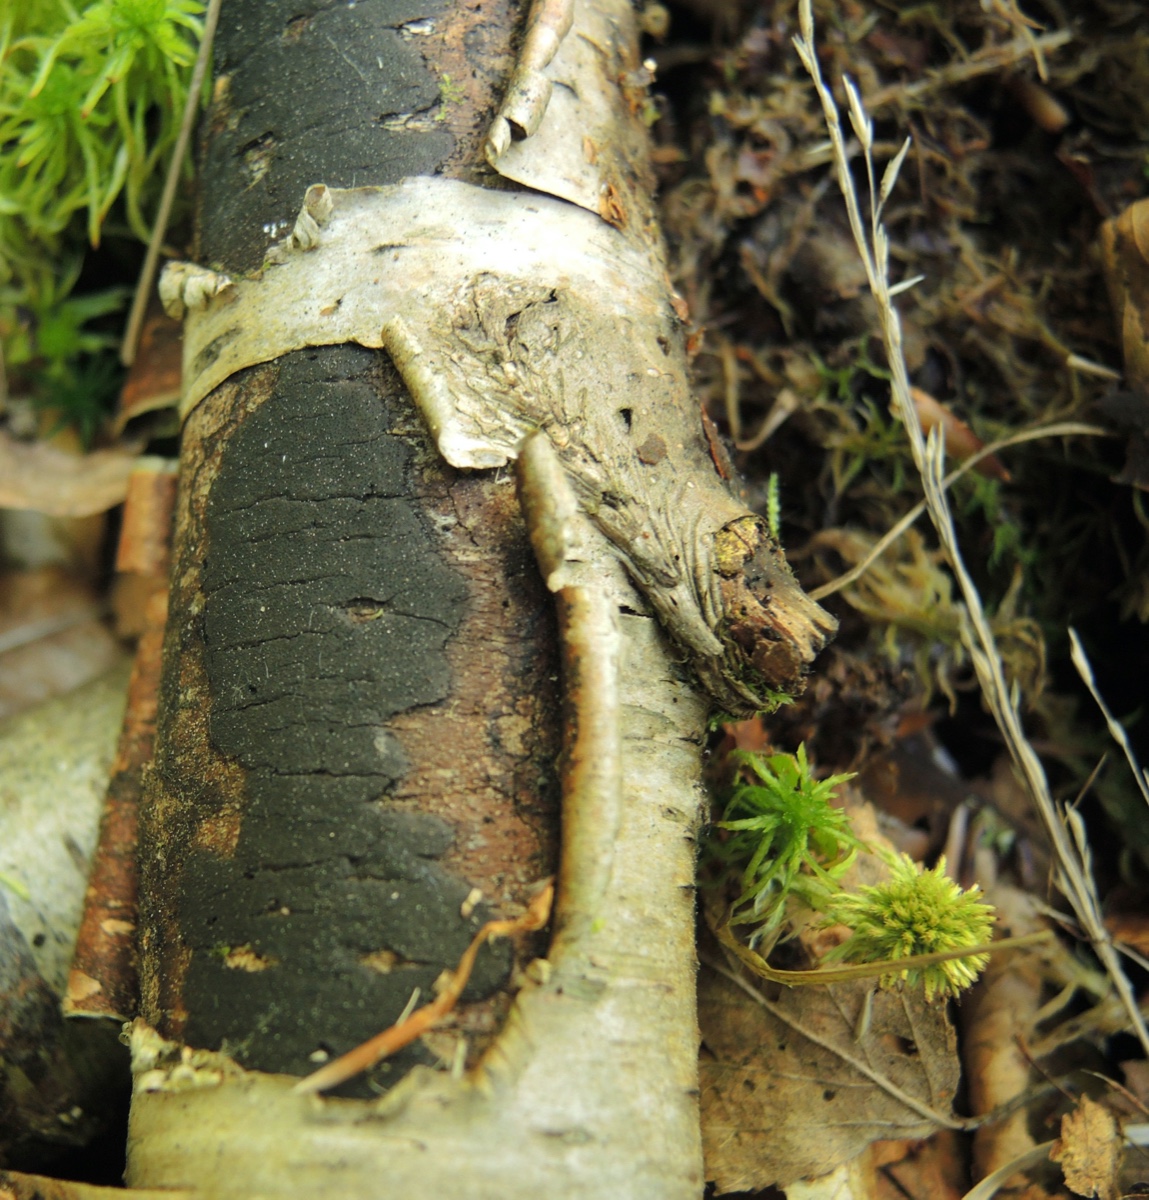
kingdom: Fungi
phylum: Ascomycota
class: Sordariomycetes
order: Xylariales
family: Diatrypaceae
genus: Diatrype
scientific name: Diatrype
